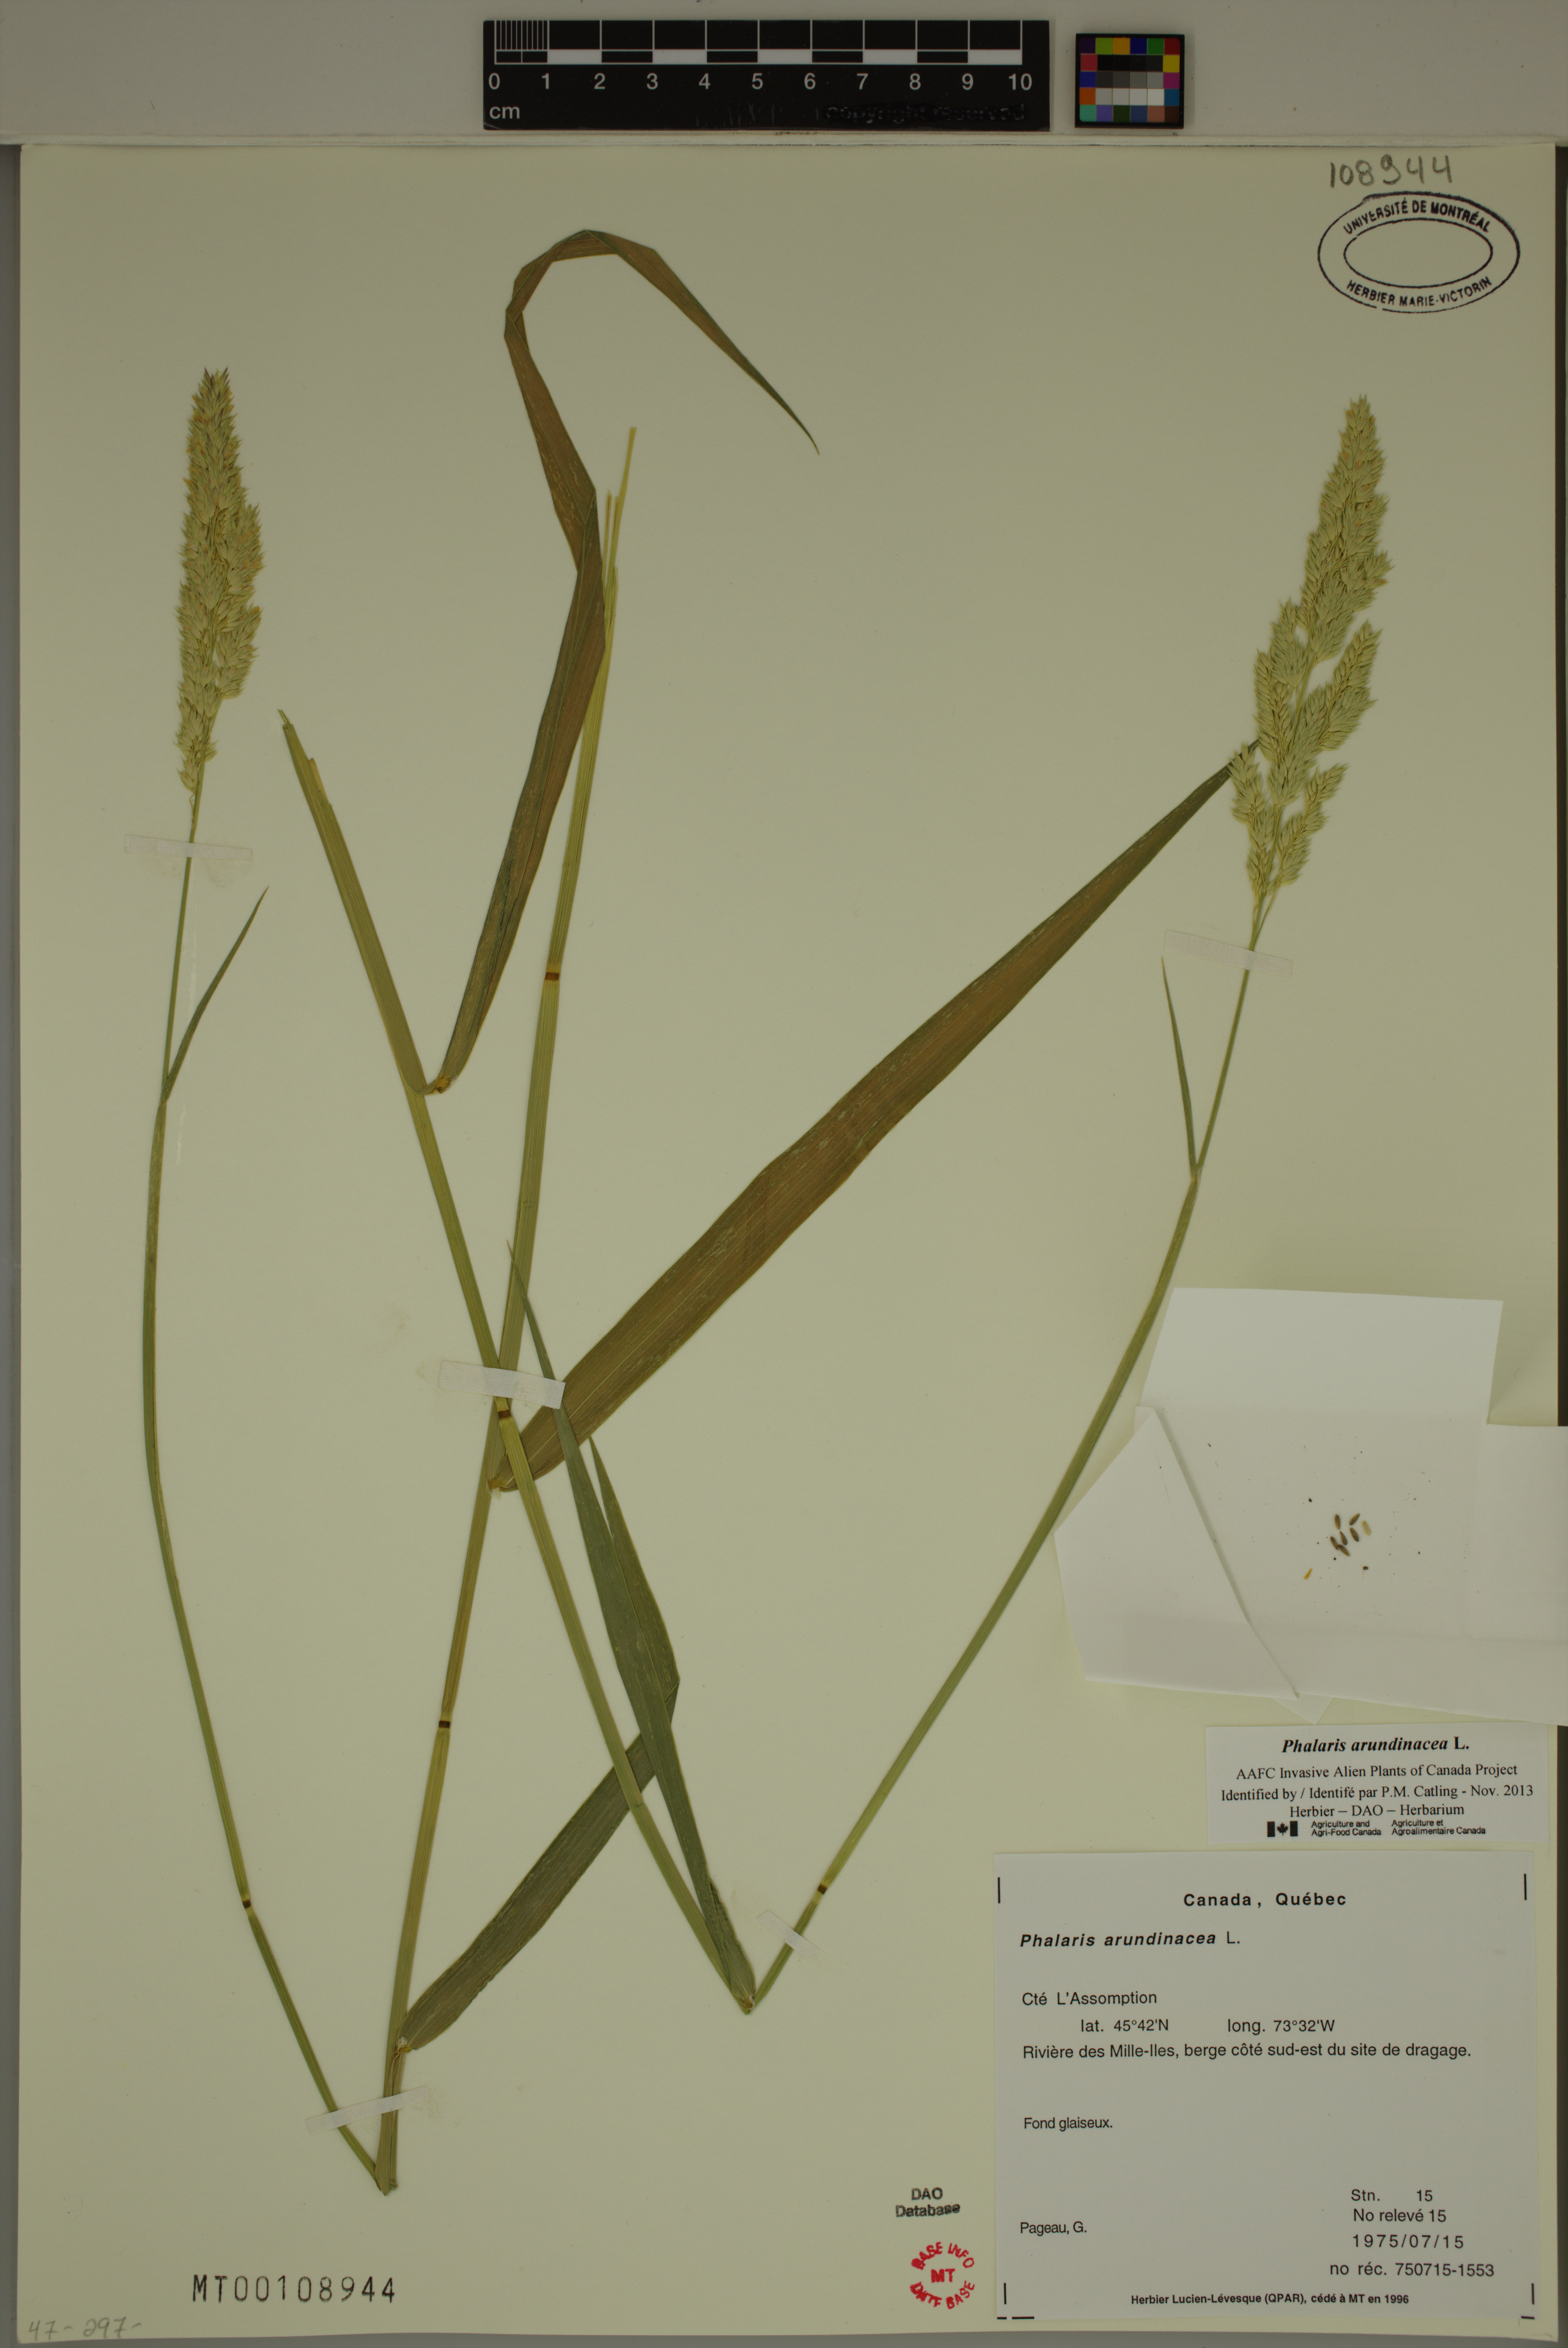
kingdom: Plantae
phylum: Tracheophyta
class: Liliopsida
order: Poales
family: Poaceae
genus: Phalaris
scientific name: Phalaris arundinacea
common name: Reed canary-grass
